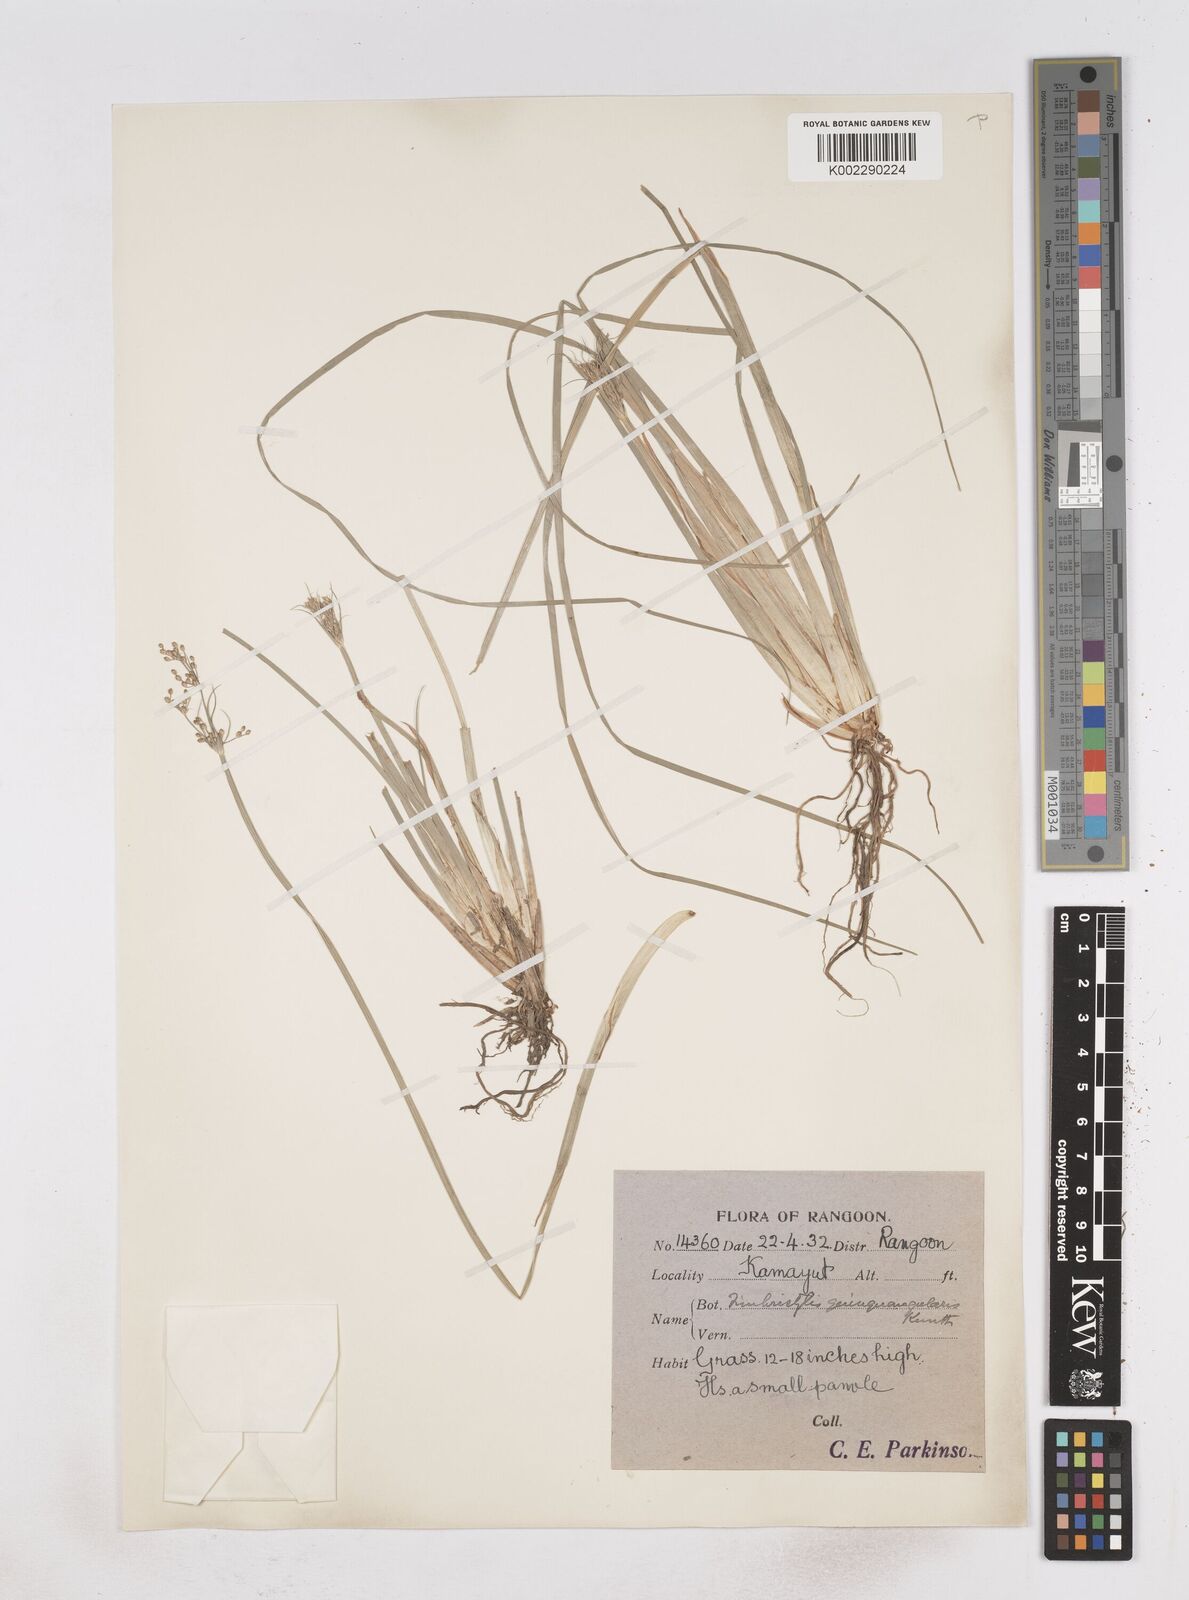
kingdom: Plantae
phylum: Tracheophyta
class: Liliopsida
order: Poales
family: Cyperaceae
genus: Fimbristylis
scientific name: Fimbristylis
